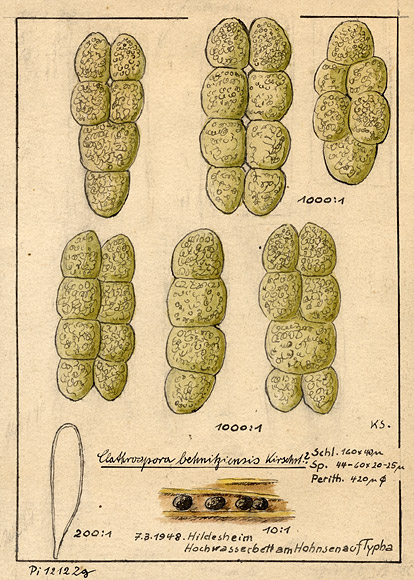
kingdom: Fungi
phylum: Ascomycota
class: Dothideomycetes
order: Pleosporales
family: Diademaceae
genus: Clathrospora
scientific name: Clathrospora behnitziensis
